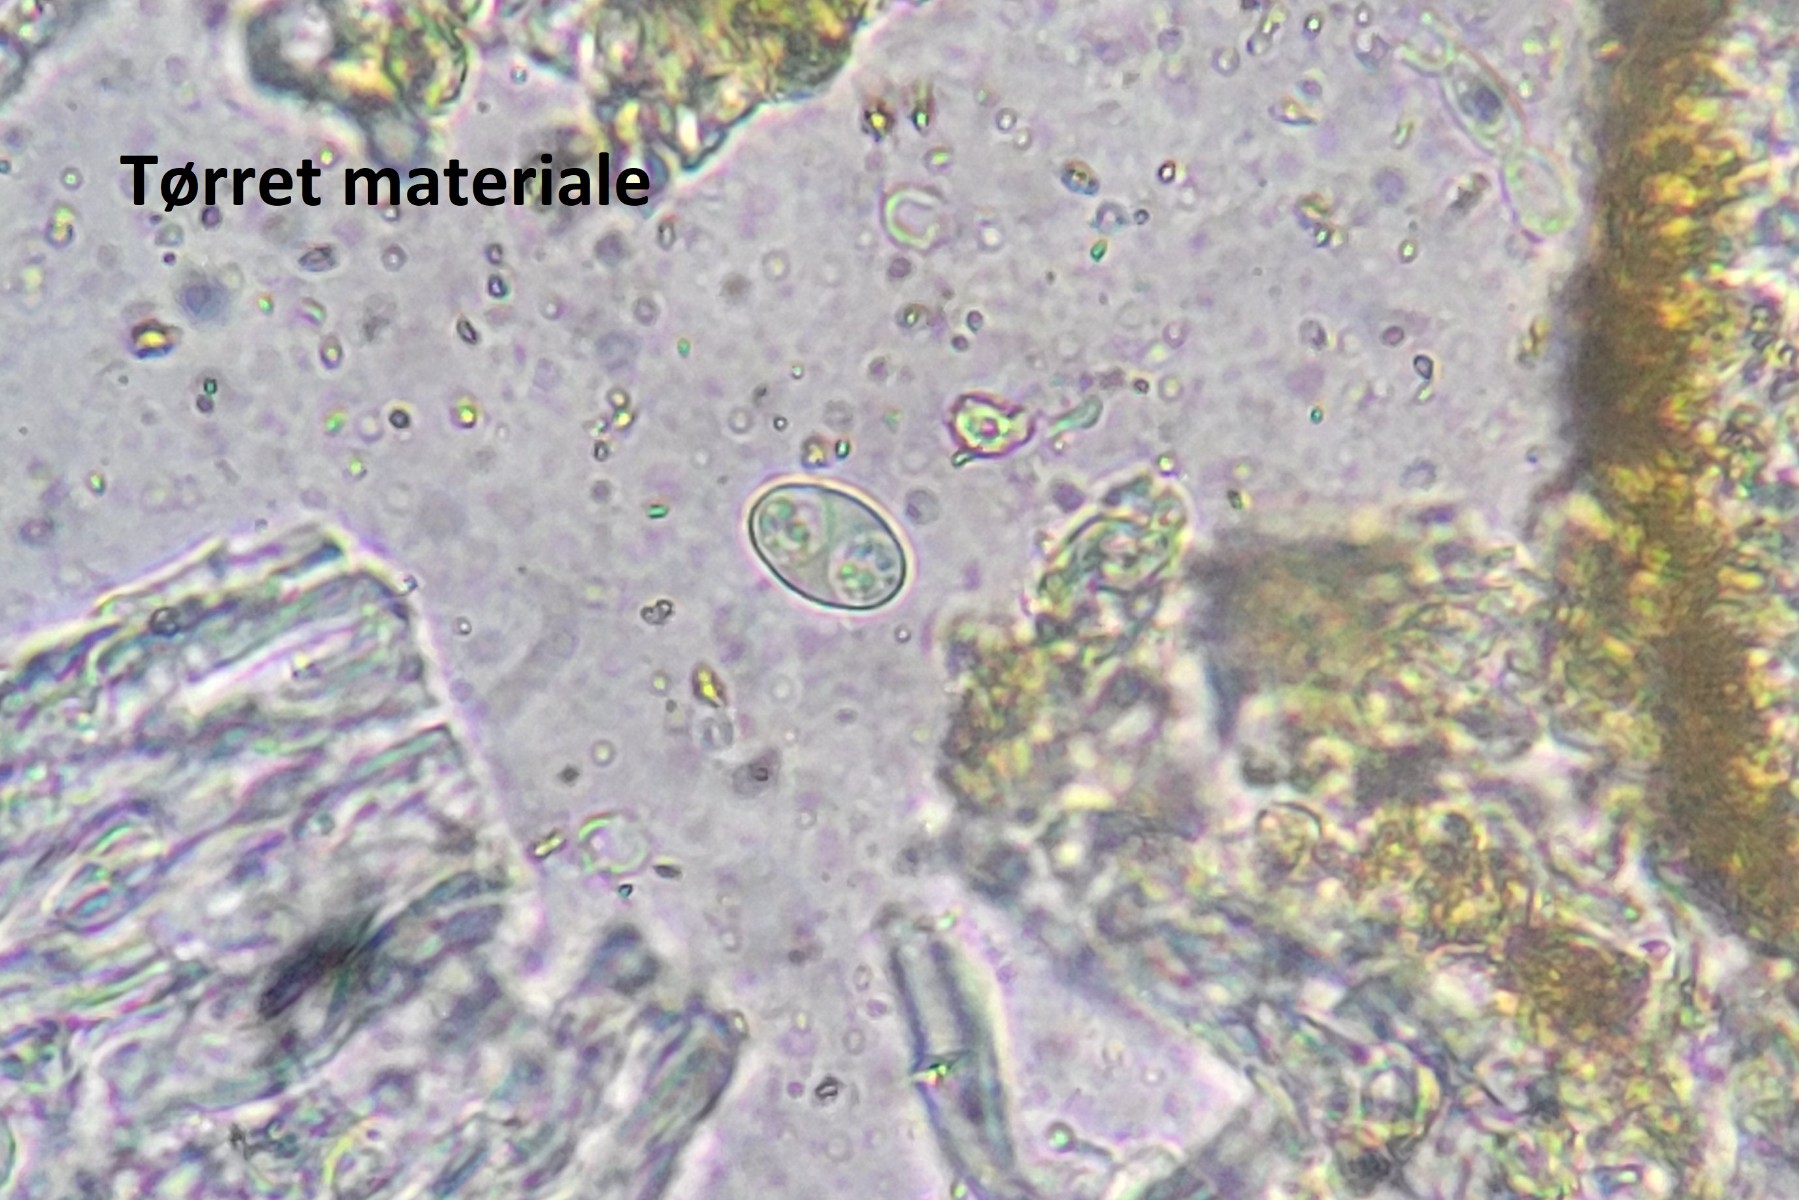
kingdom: Fungi
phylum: Ascomycota
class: Lecanoromycetes
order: Teloschistales
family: Teloschistaceae
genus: Athallia
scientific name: Athallia holocarpa
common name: liden orangelav
